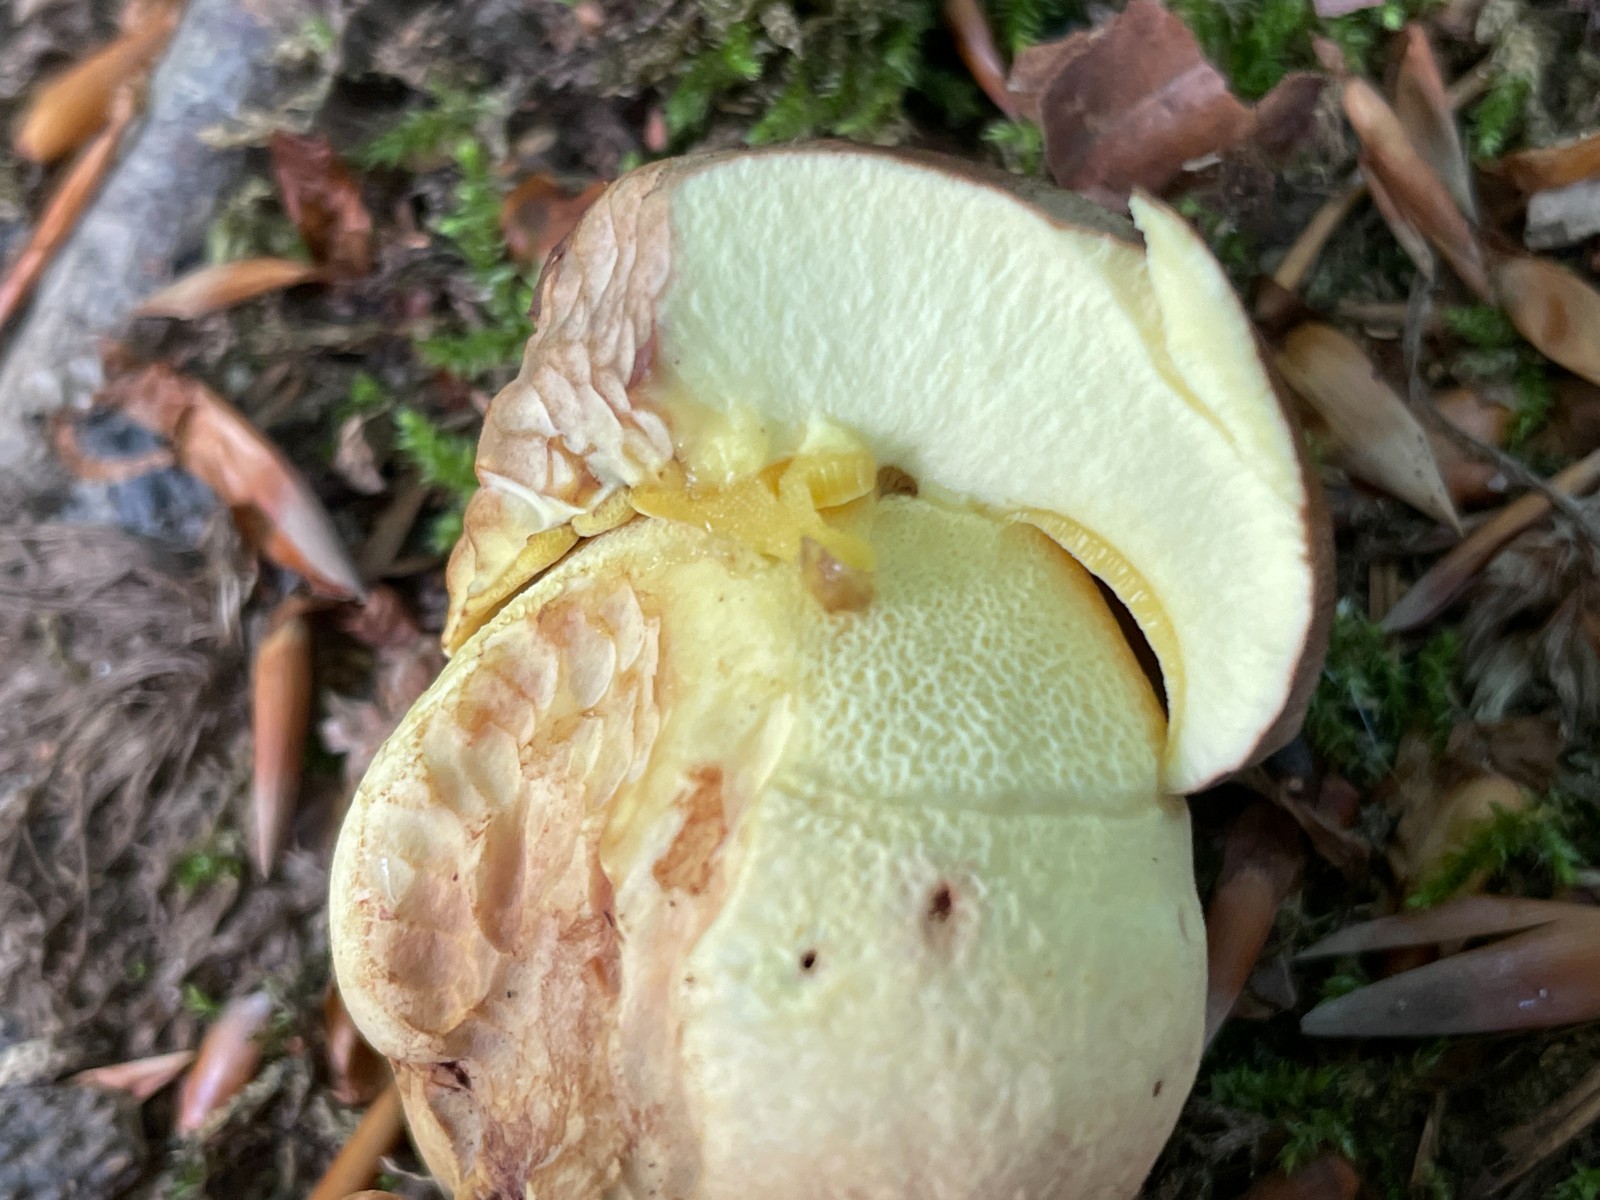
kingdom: Fungi
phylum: Basidiomycota
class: Agaricomycetes
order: Boletales
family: Boletaceae
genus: Butyriboletus
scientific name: Butyriboletus appendiculatus
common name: tenstokket rørhat
